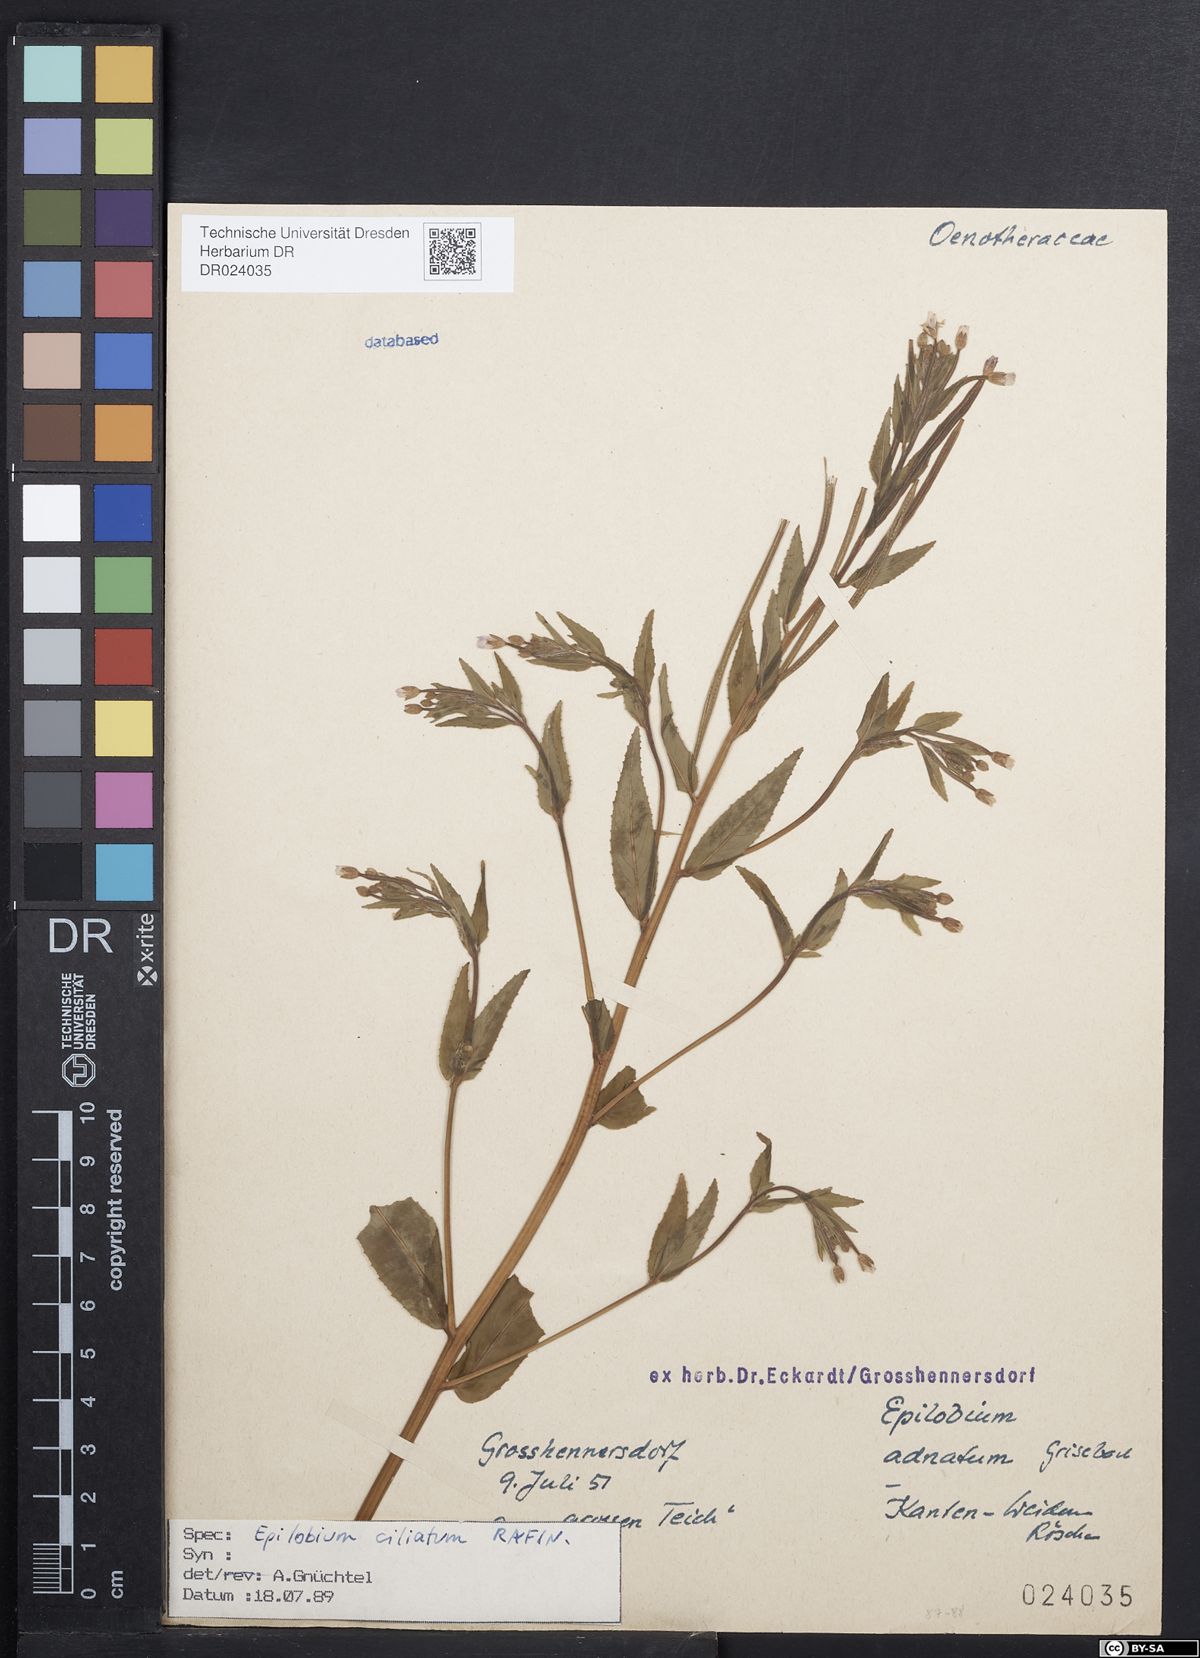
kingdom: Plantae
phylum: Tracheophyta
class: Magnoliopsida
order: Myrtales
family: Onagraceae
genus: Epilobium
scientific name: Epilobium ciliatum
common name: American willowherb
